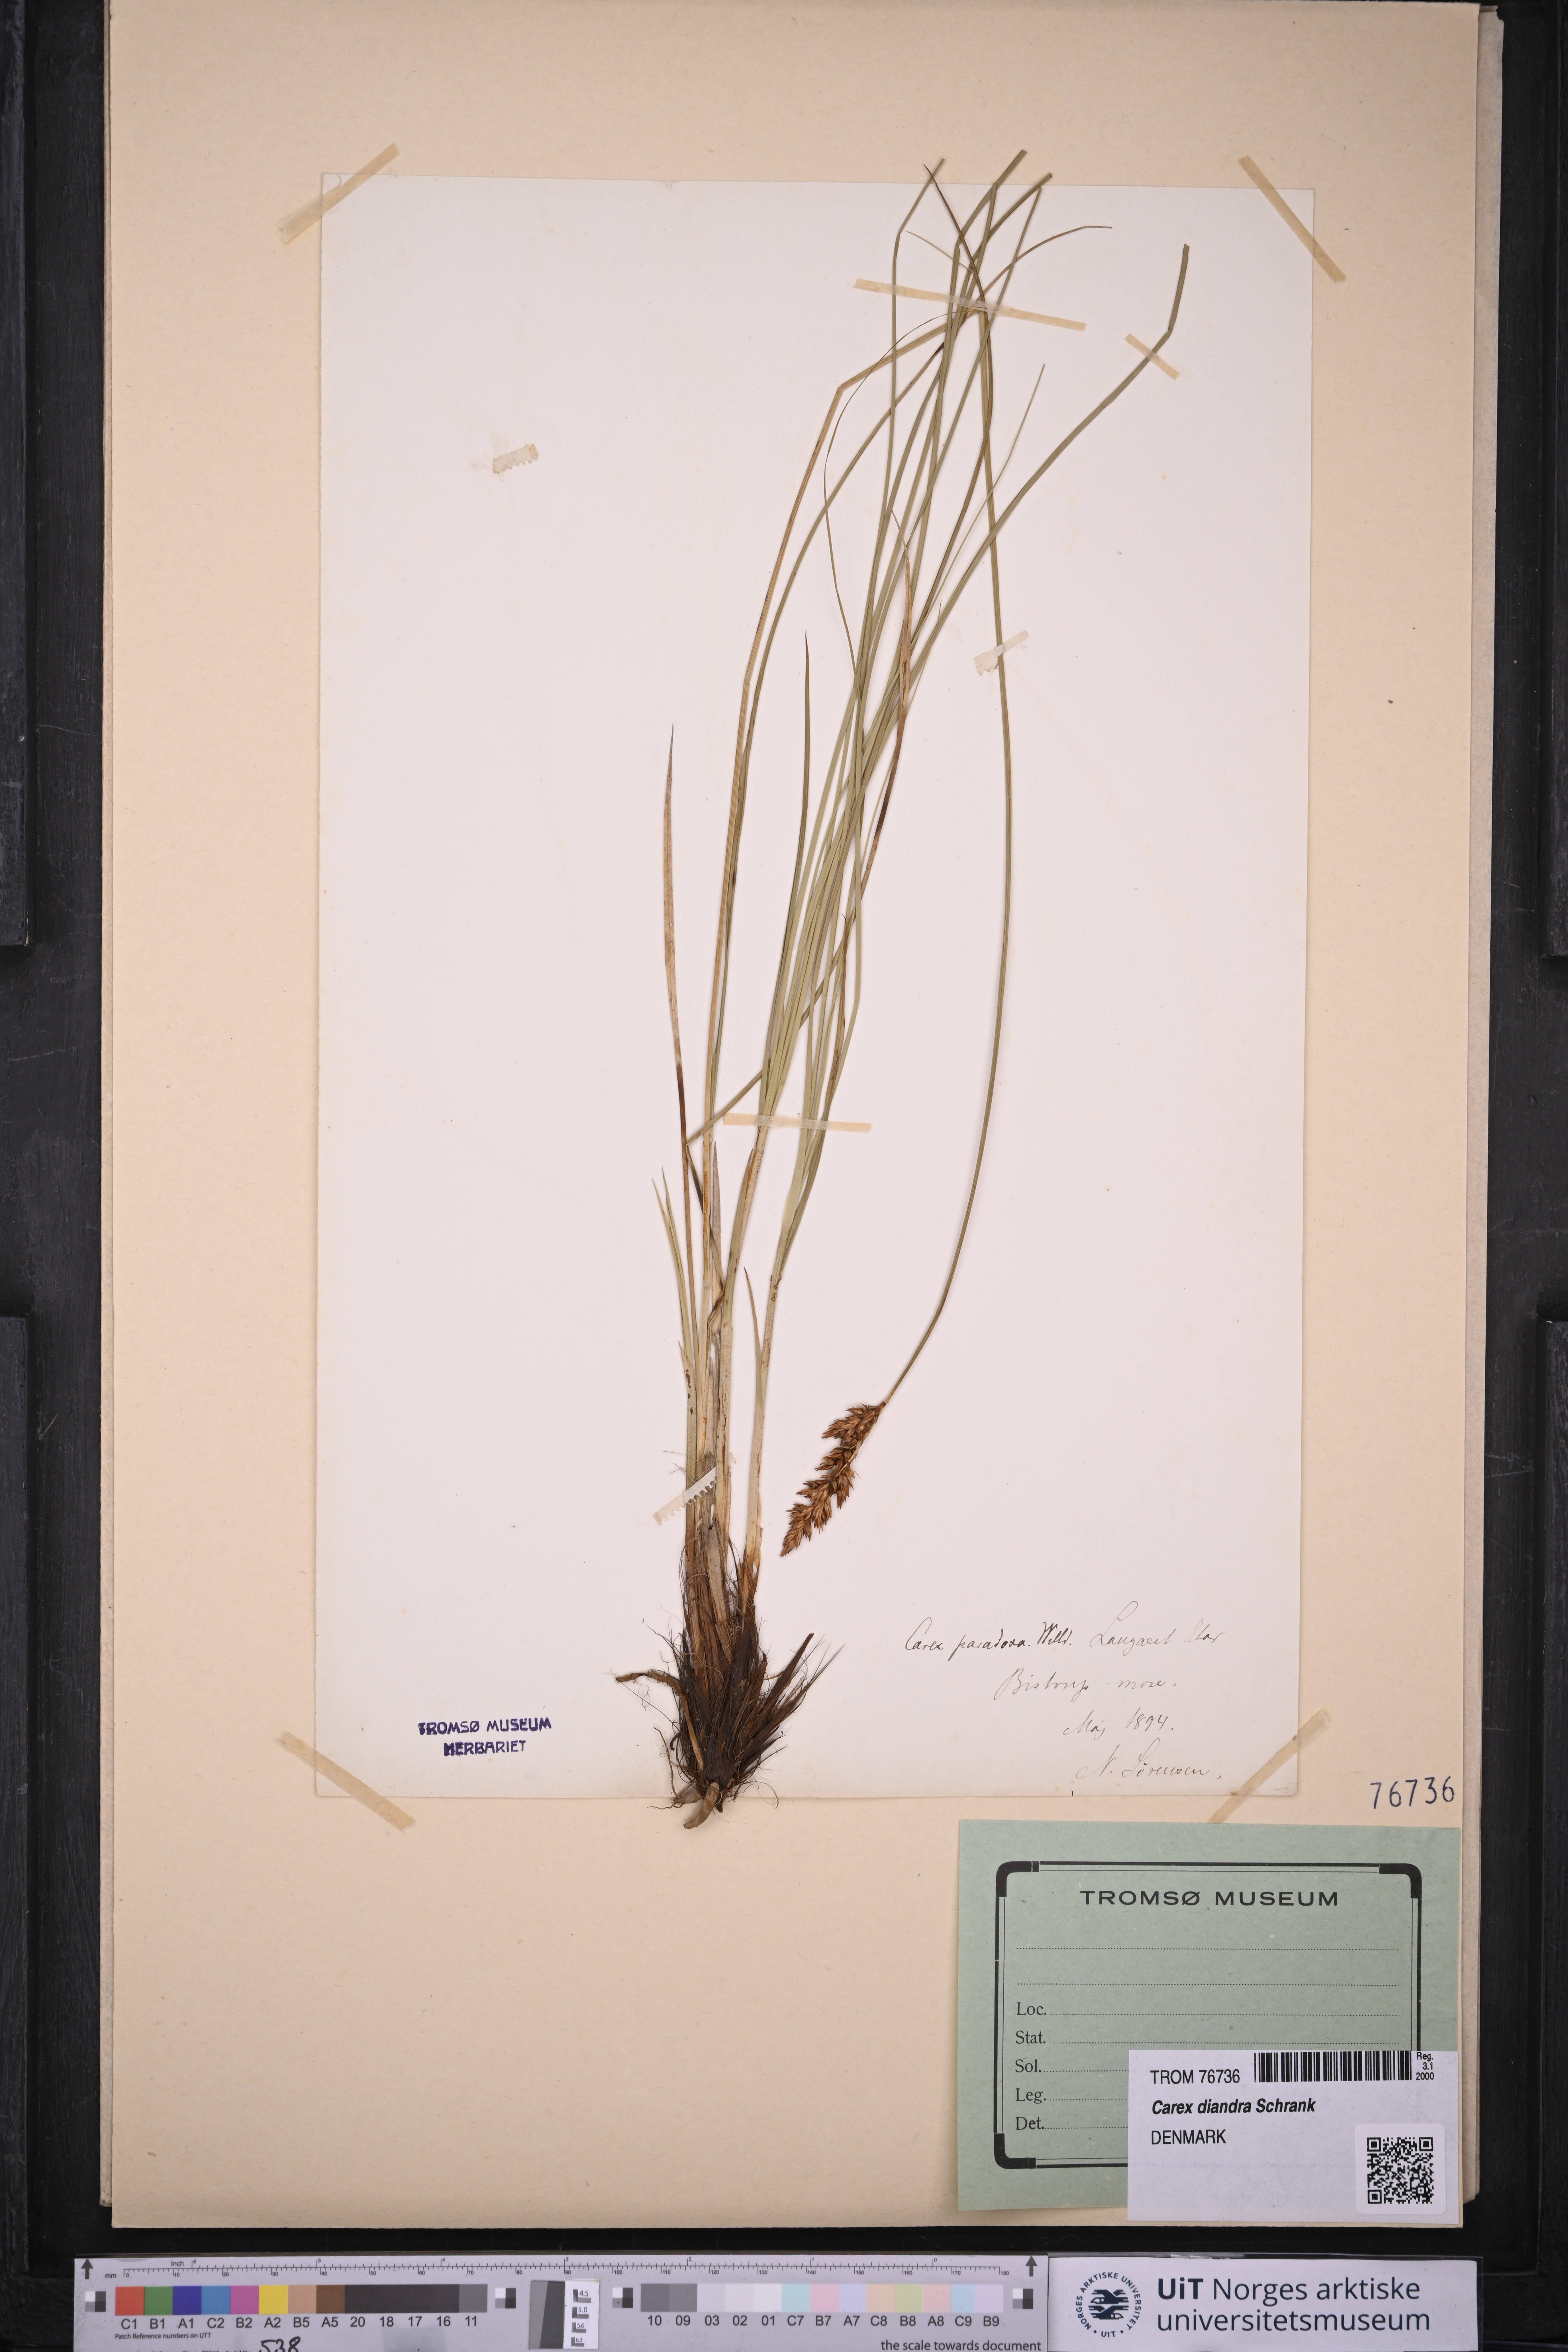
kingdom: Plantae
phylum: Tracheophyta
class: Liliopsida
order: Poales
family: Cyperaceae
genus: Carex
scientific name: Carex diandra
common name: Lesser tussock-sedge
